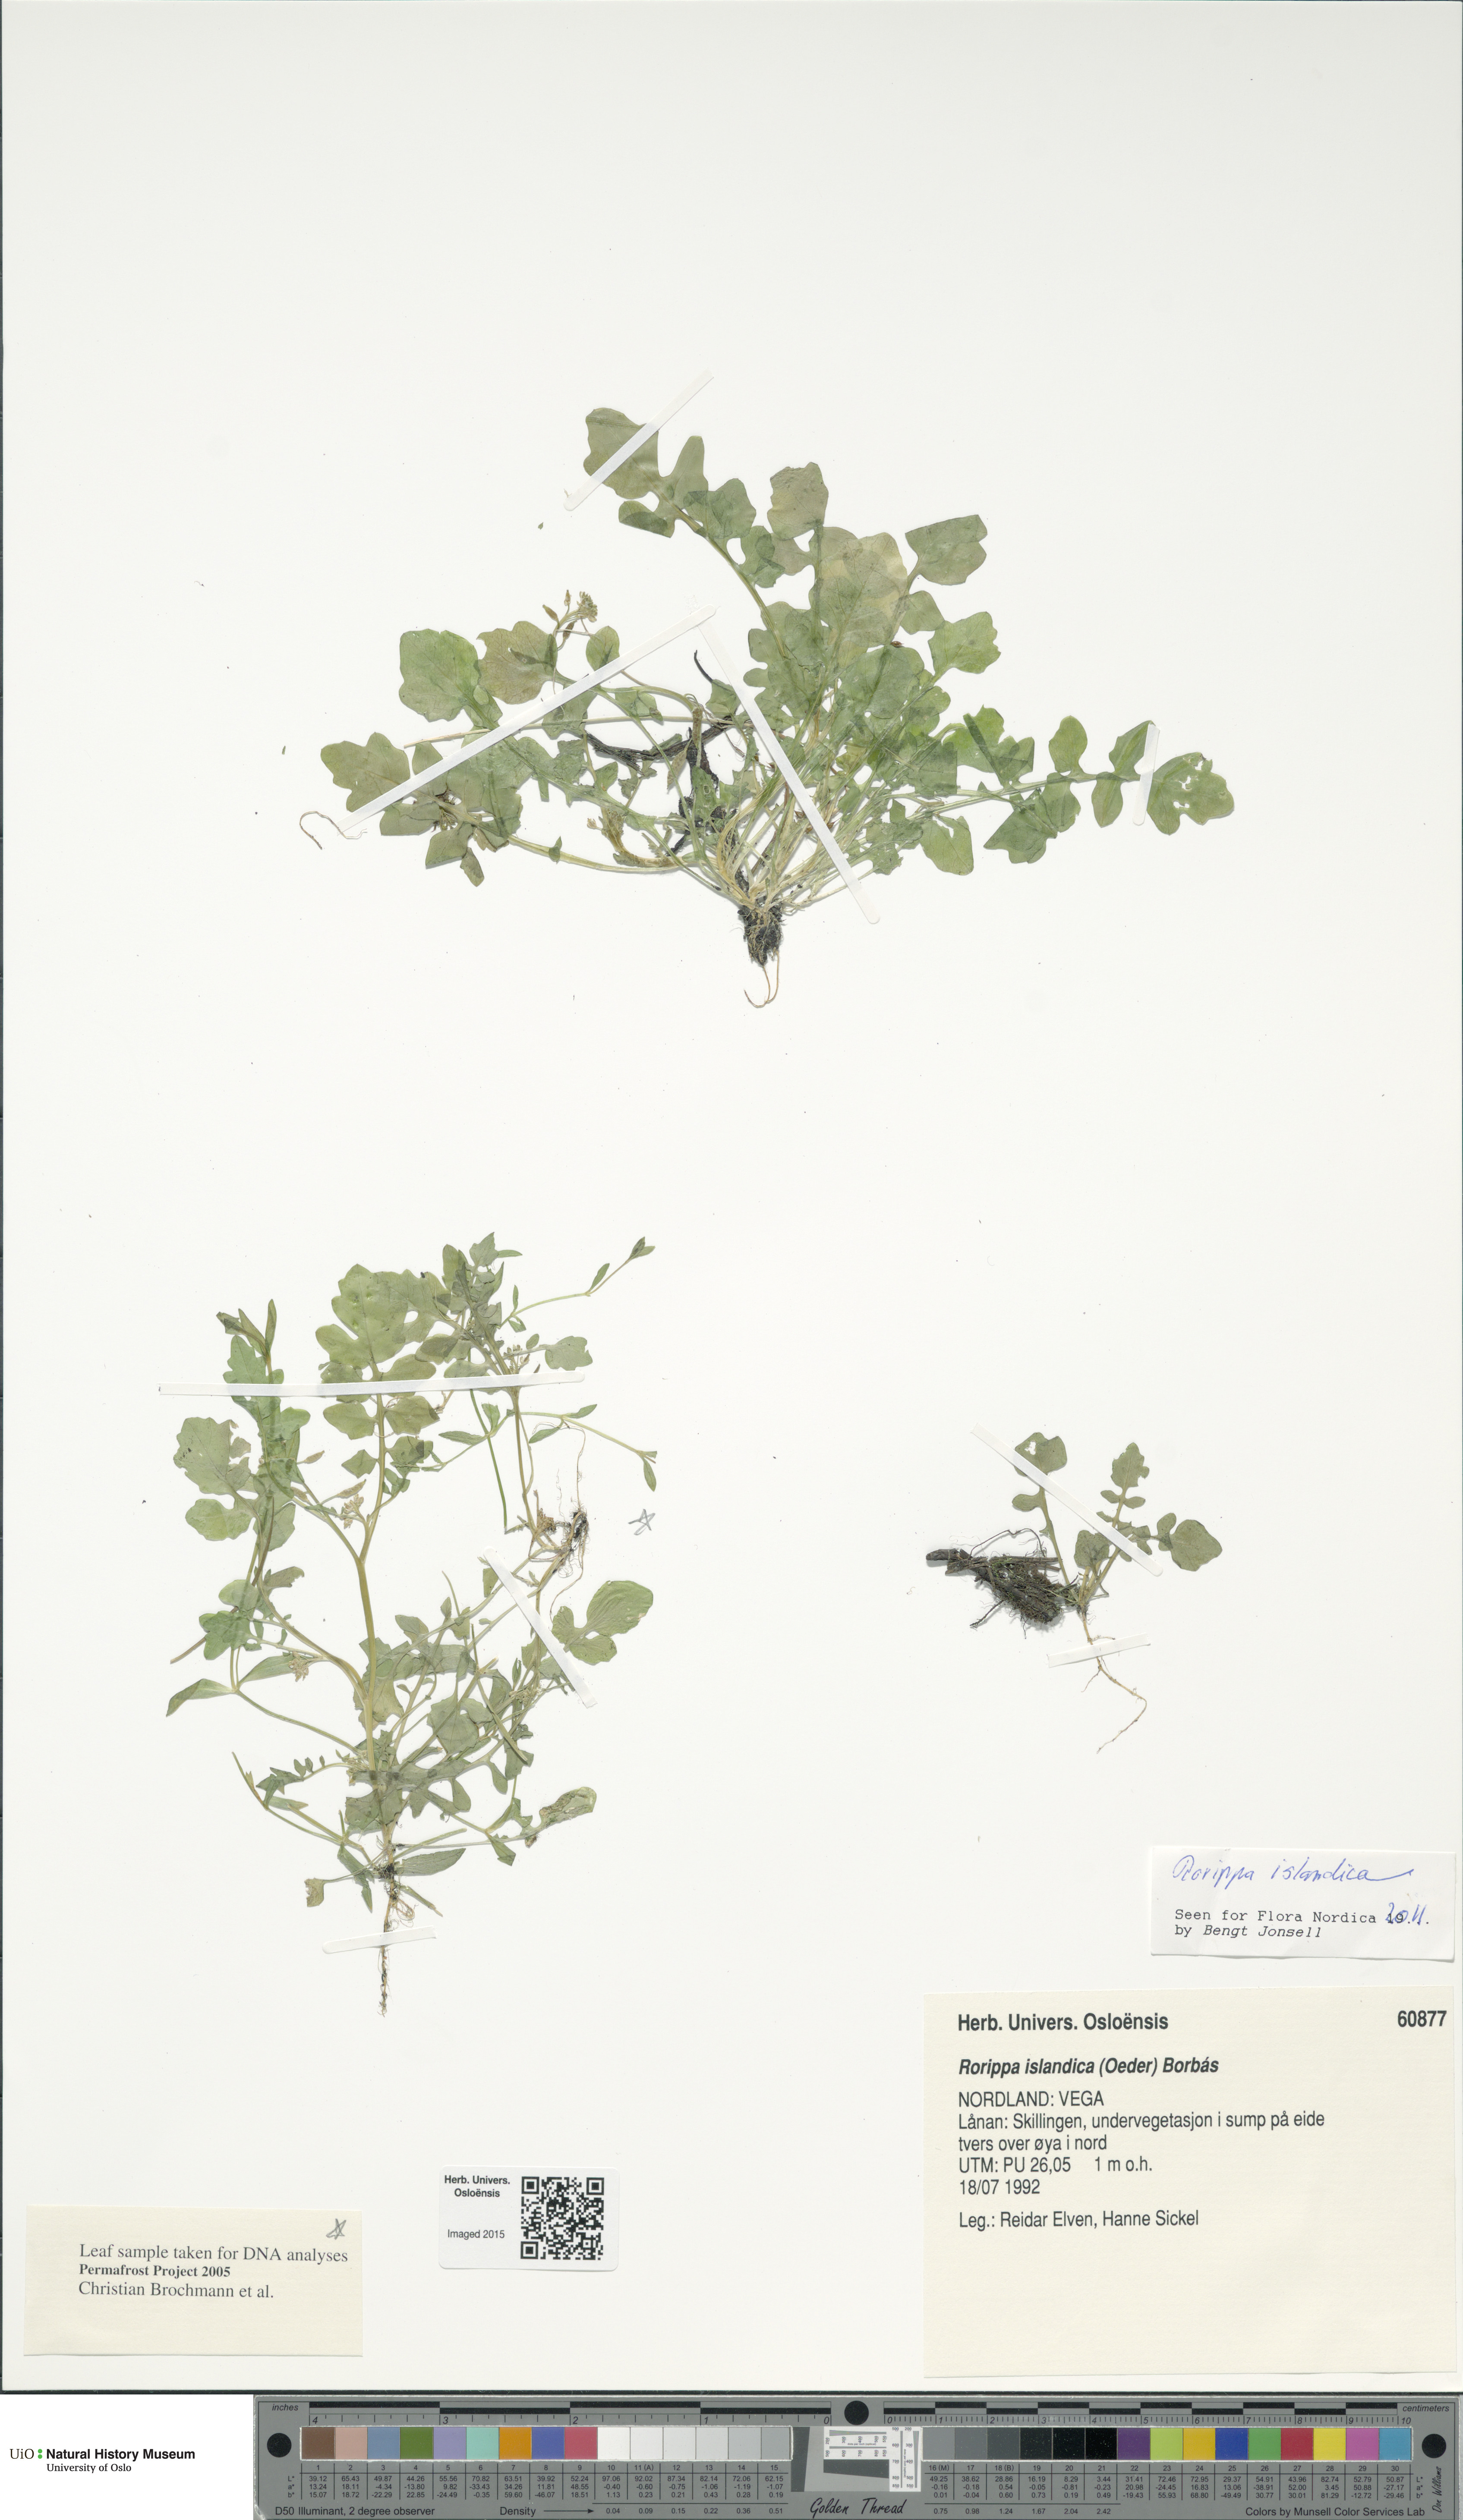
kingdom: Plantae
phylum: Tracheophyta
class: Magnoliopsida
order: Brassicales
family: Brassicaceae
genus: Rorippa
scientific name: Rorippa islandica
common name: Marsh cress
